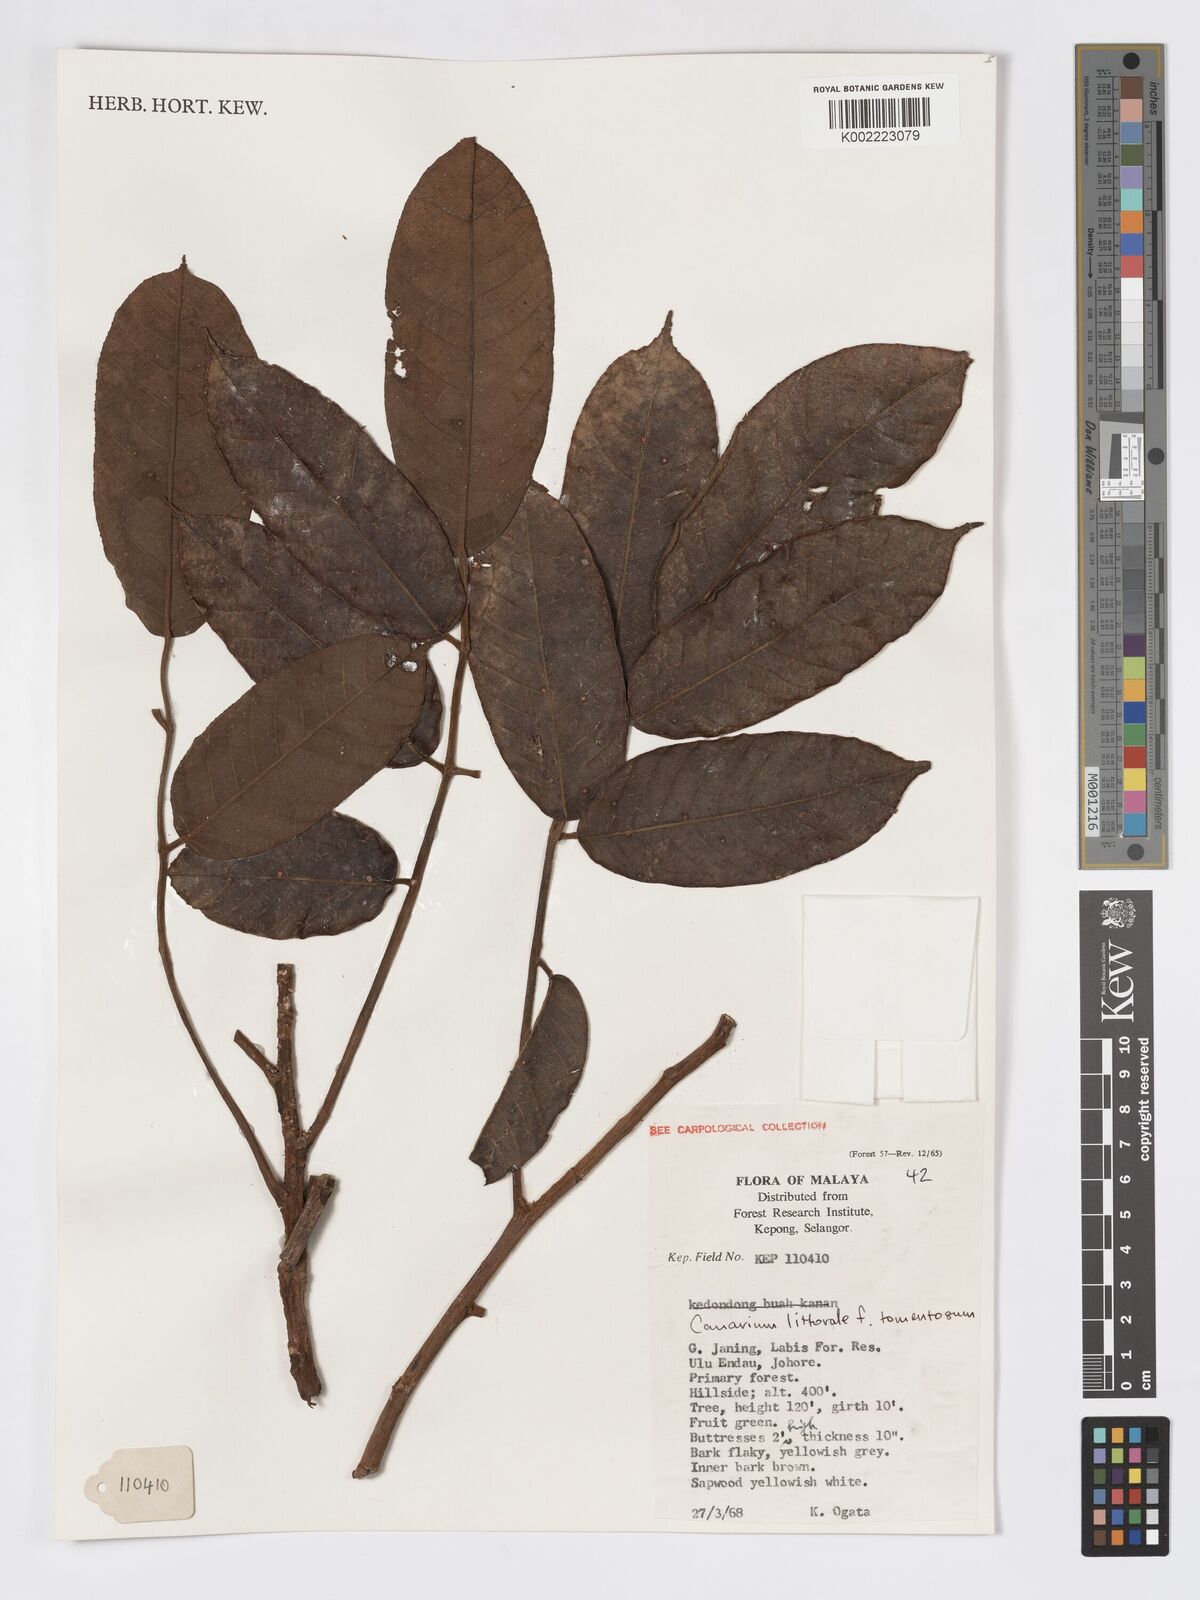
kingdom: Plantae
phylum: Tracheophyta
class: Magnoliopsida
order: Sapindales
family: Burseraceae
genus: Canarium
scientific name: Canarium littorale
